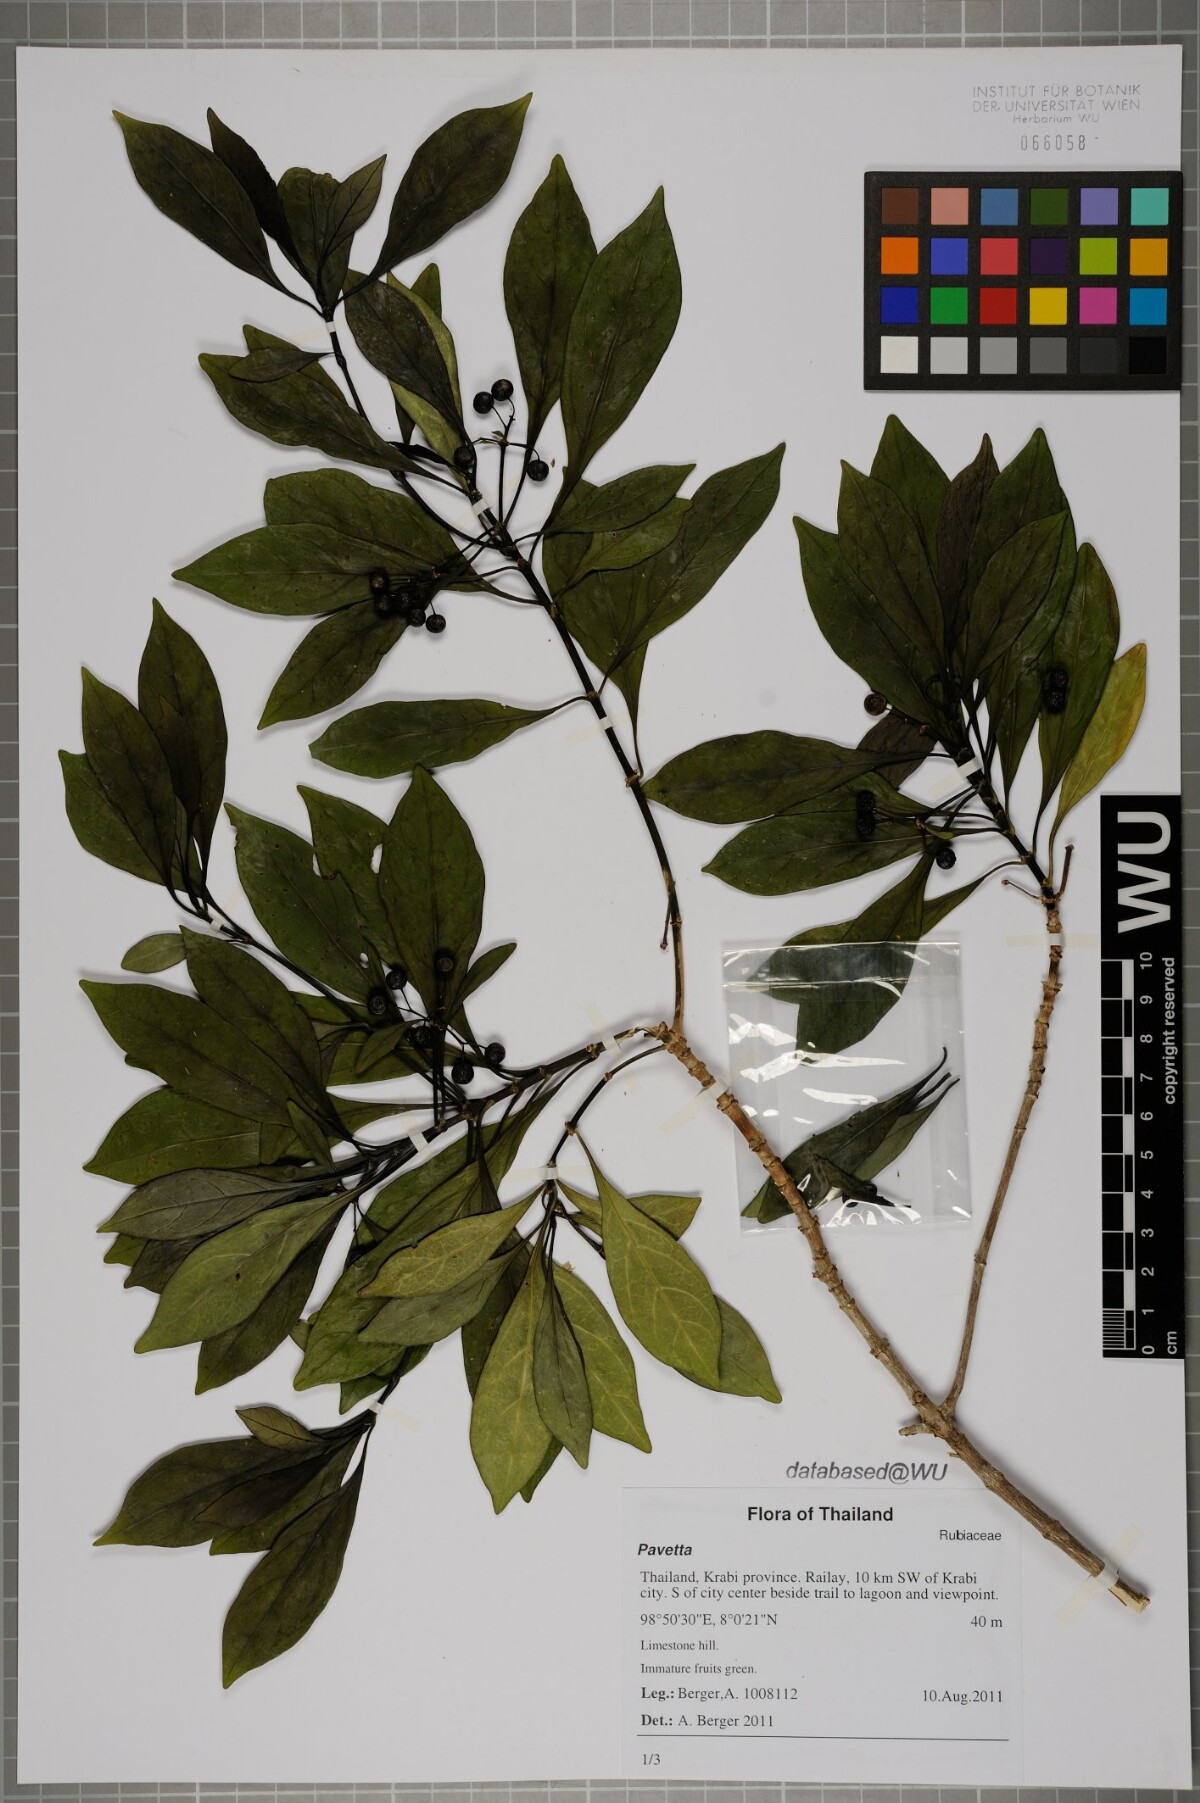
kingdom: Plantae
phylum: Tracheophyta
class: Magnoliopsida
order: Gentianales
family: Rubiaceae
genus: Pavetta
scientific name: Pavetta
